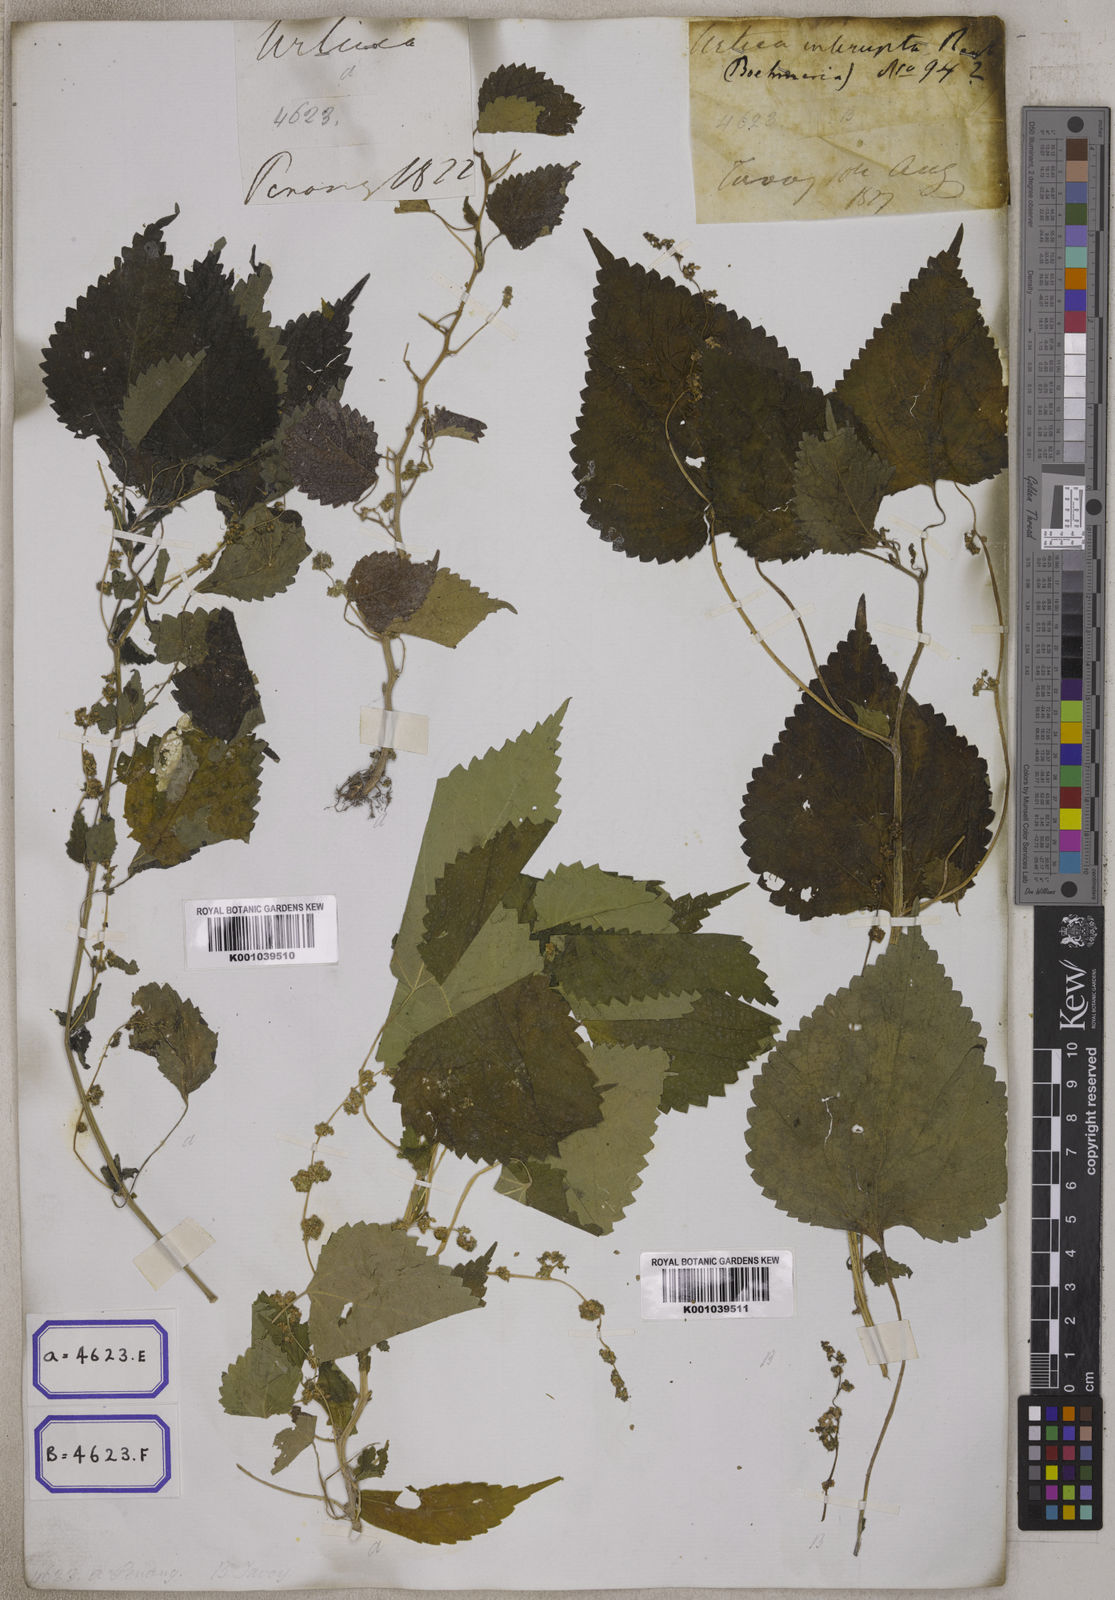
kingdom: Plantae
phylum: Tracheophyta
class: Magnoliopsida
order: Rosales
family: Urticaceae
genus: Laportea
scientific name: Laportea interrupta
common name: Hawaiian wood-nettle
